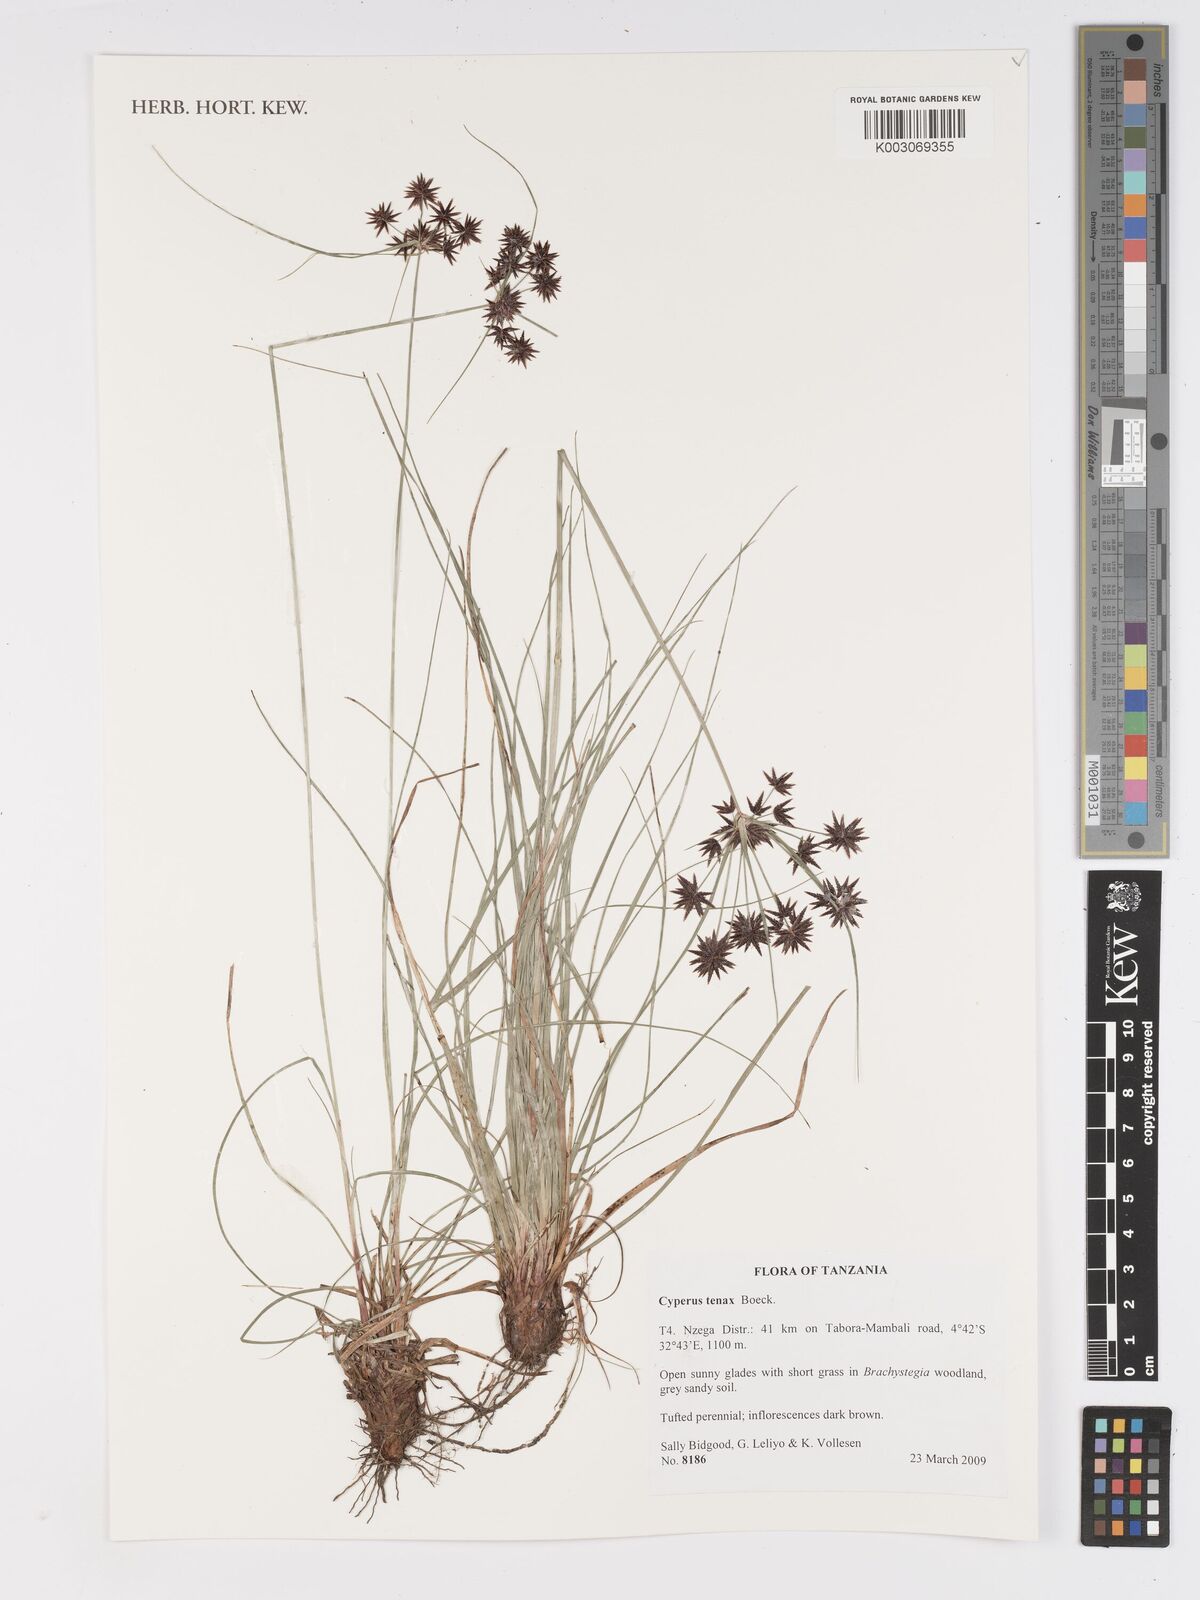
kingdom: Plantae
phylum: Tracheophyta
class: Liliopsida
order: Poales
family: Cyperaceae
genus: Cyperus
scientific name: Cyperus tenax
